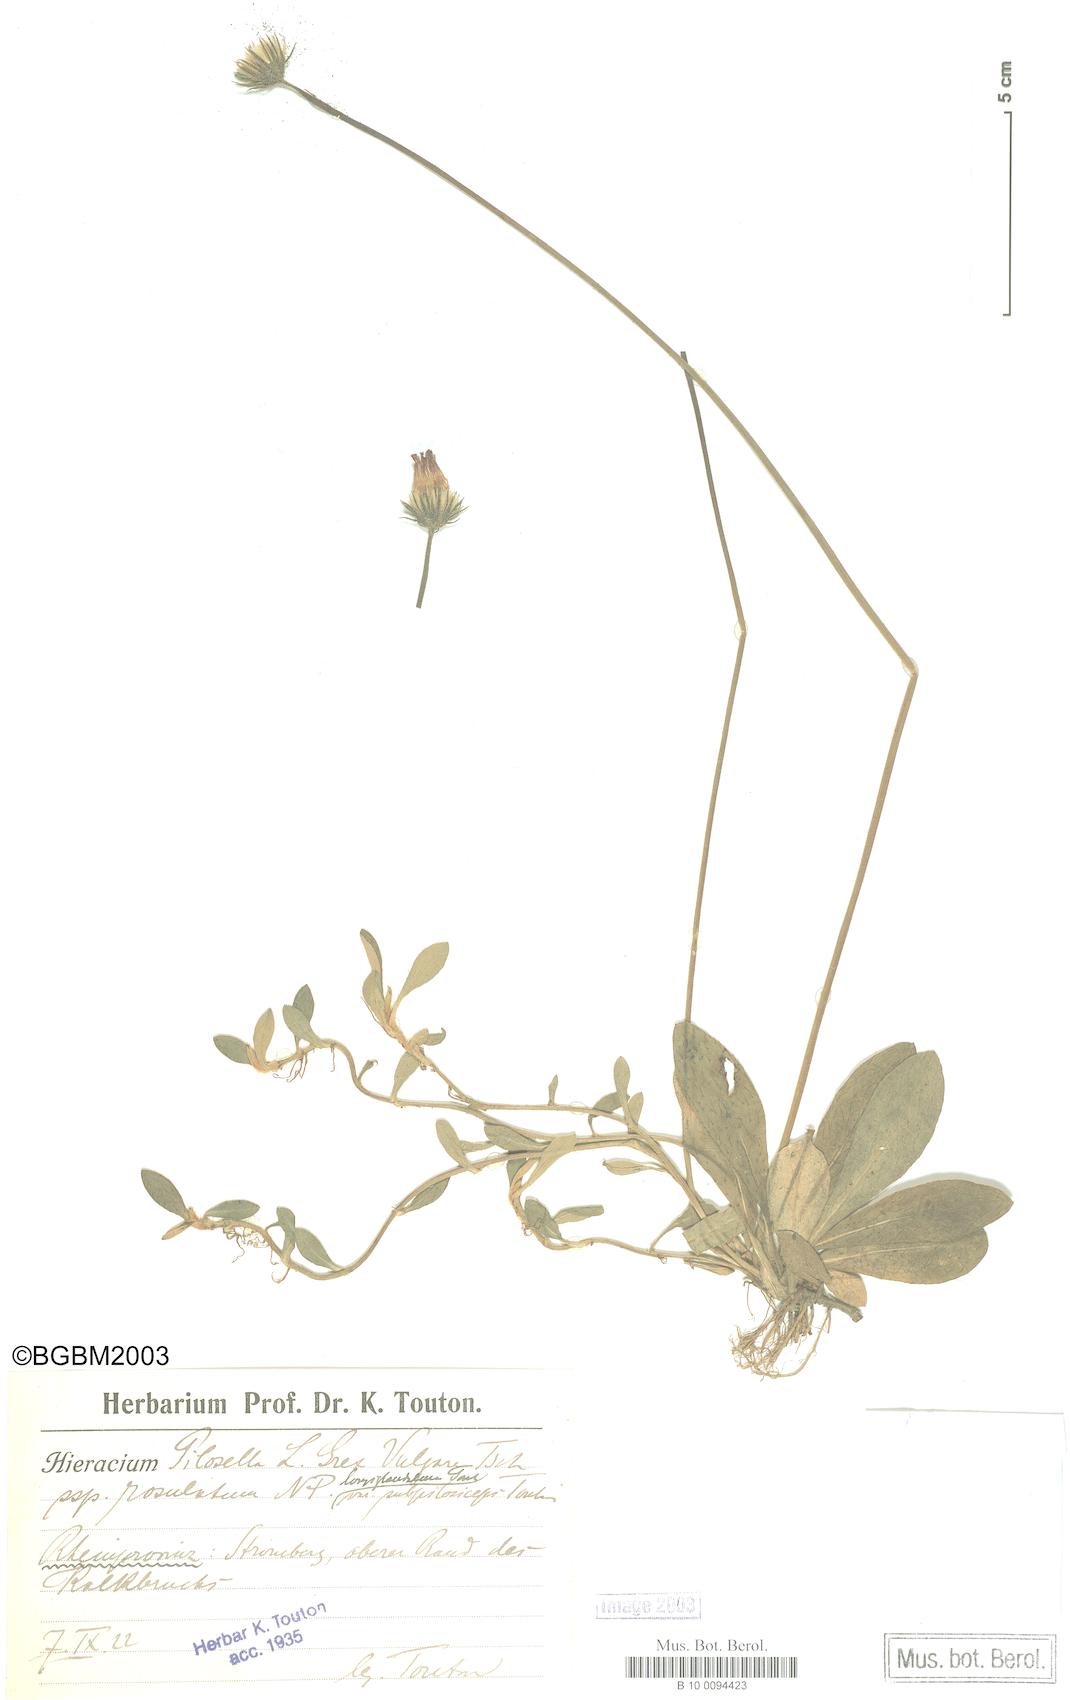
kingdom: Plantae
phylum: Tracheophyta
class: Magnoliopsida
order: Asterales
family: Asteraceae
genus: Pilosella
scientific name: Pilosella officinarum
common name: Mouse-ear hawkweed
